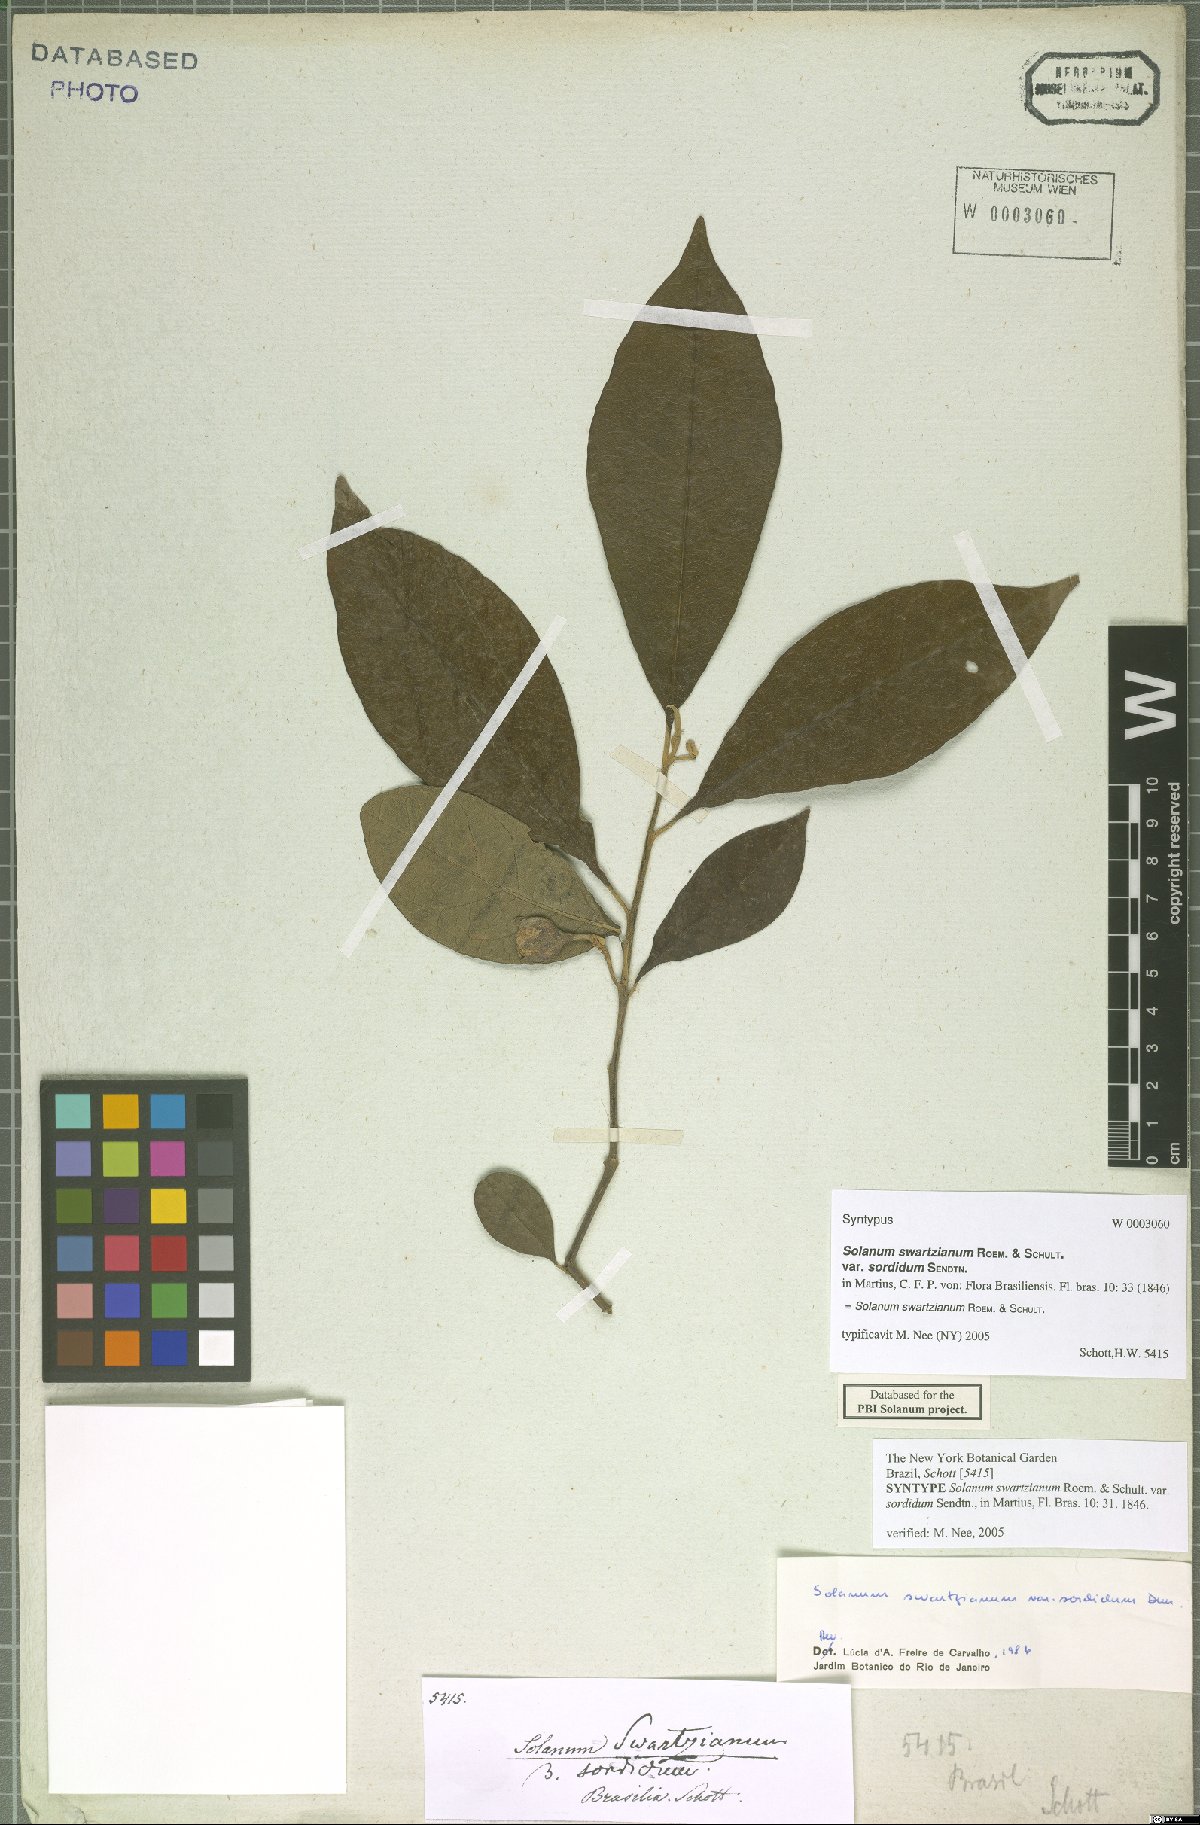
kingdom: Plantae
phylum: Tracheophyta
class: Magnoliopsida
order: Solanales
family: Solanaceae
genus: Solanum
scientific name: Solanum swartzianum
